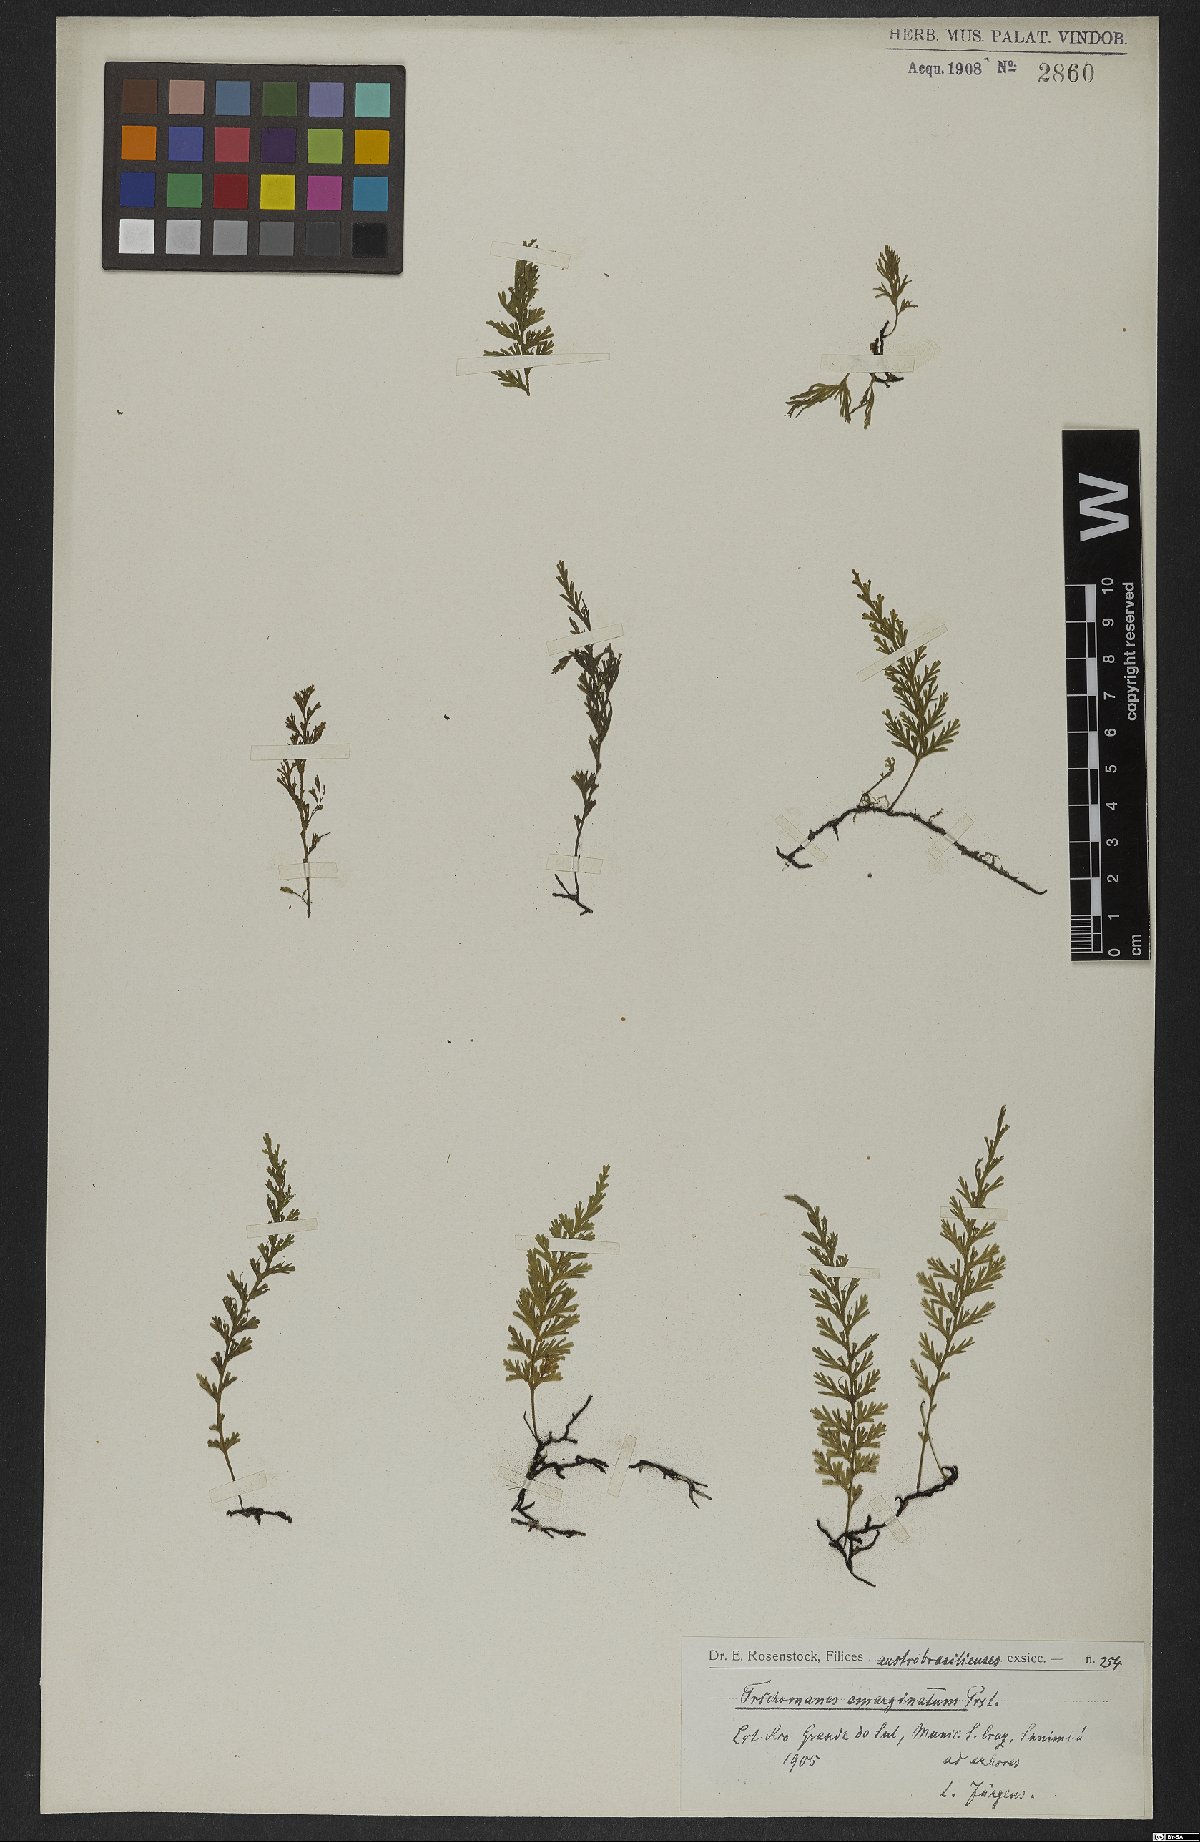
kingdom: Plantae
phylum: Tracheophyta
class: Polypodiopsida
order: Hymenophyllales
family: Hymenophyllaceae
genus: Polyphlebium
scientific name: Polyphlebium pyxidiferum
